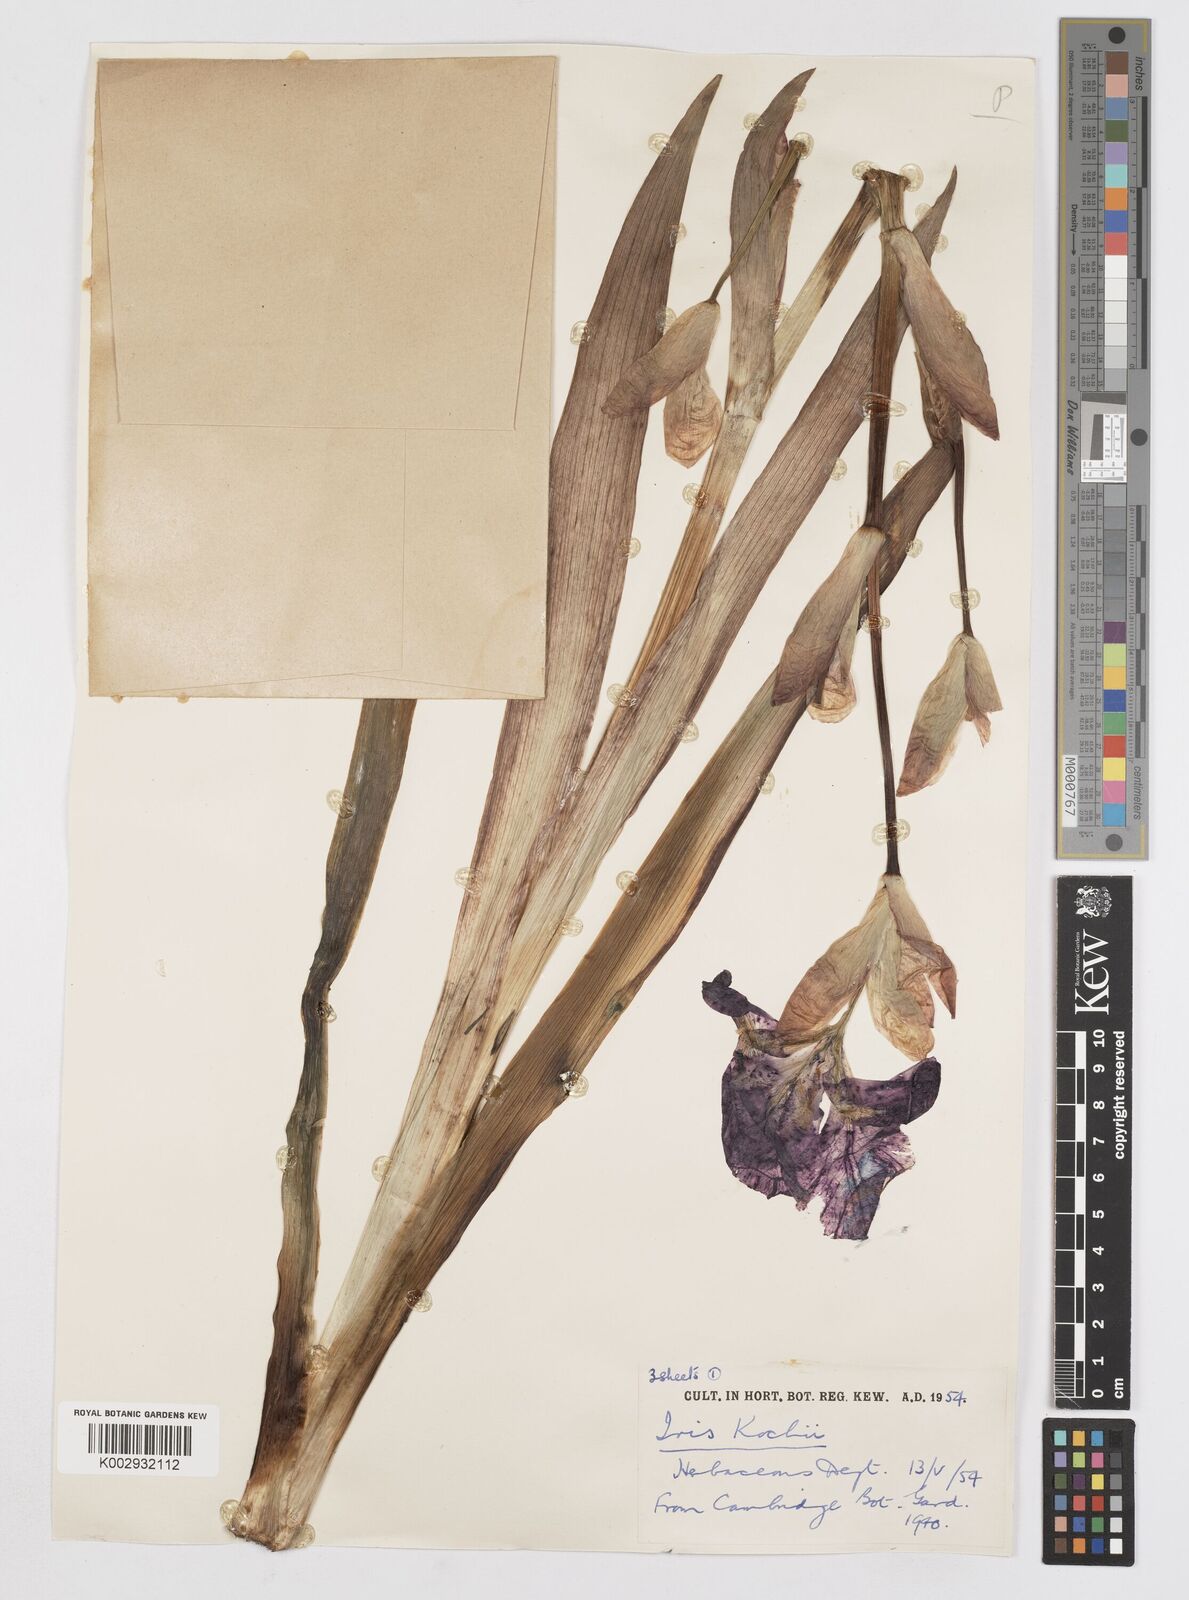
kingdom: Plantae
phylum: Tracheophyta
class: Liliopsida
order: Asparagales
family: Iridaceae
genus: Iris
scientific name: Iris kochii
